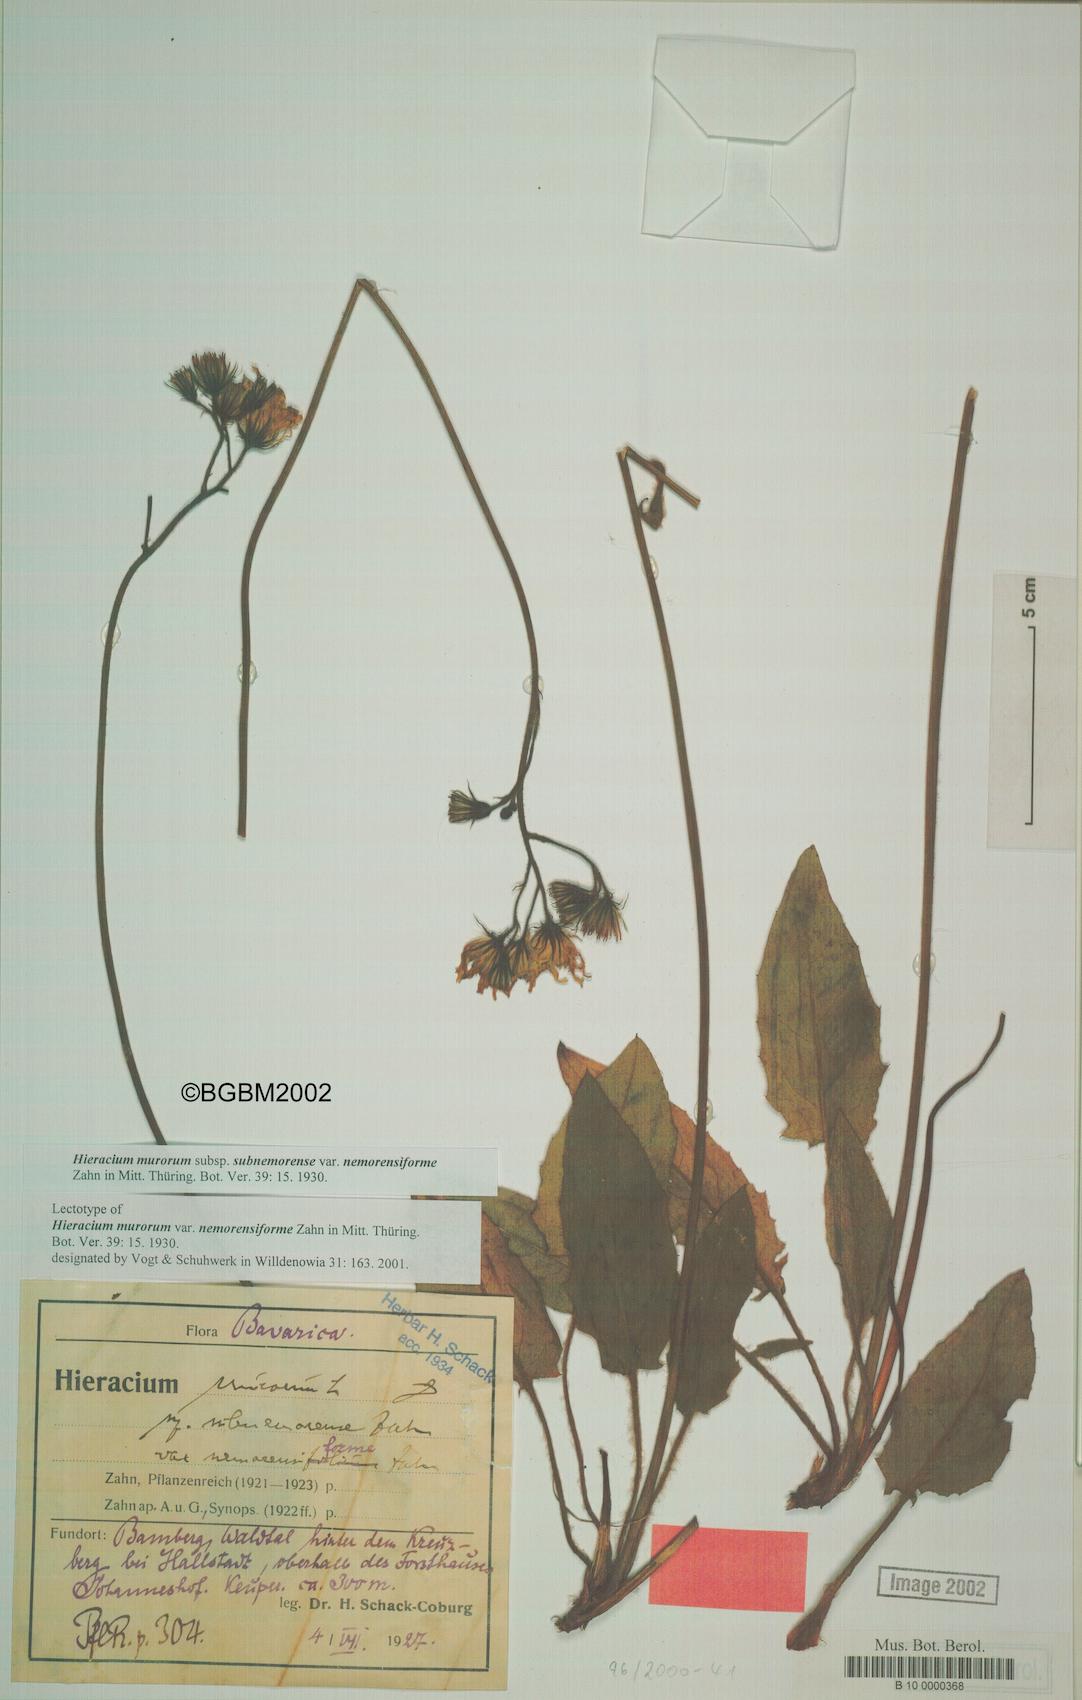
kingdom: Plantae
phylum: Tracheophyta
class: Magnoliopsida
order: Asterales
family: Asteraceae
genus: Hieracium
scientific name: Hieracium murorum
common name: Wall hawkweed
